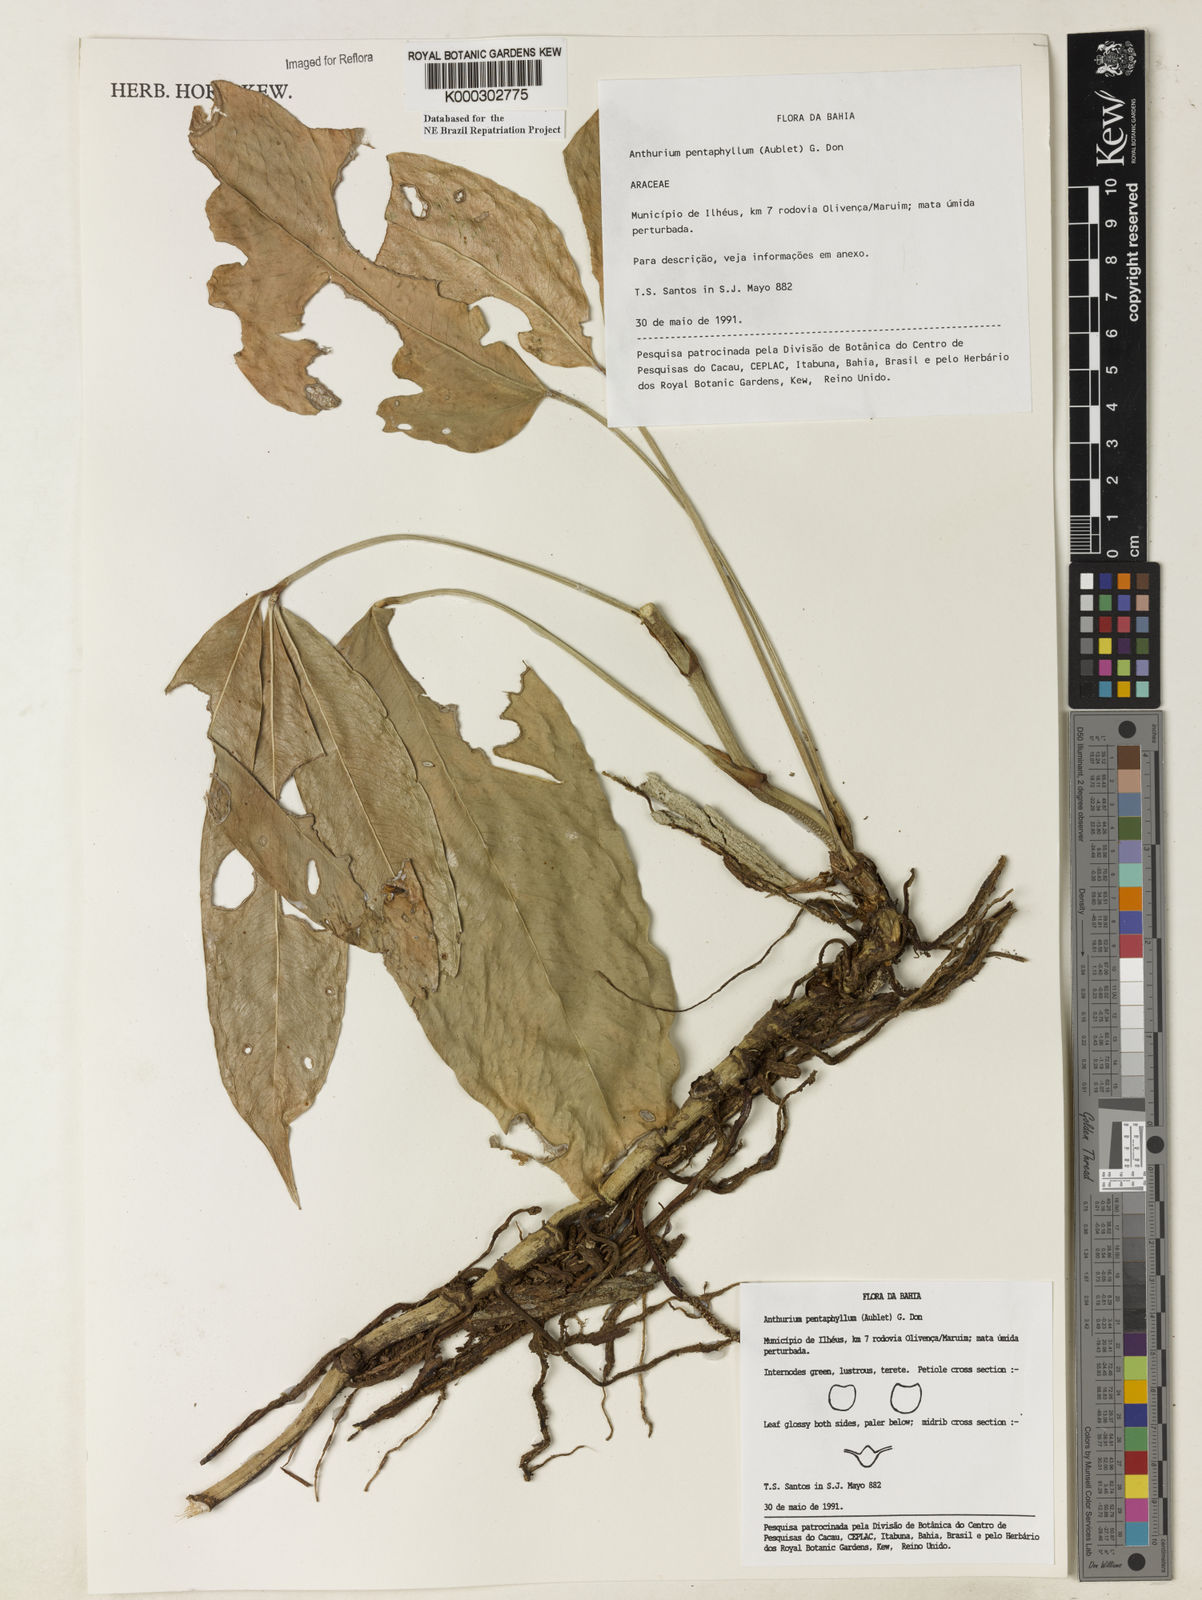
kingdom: Plantae
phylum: Tracheophyta
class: Liliopsida
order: Alismatales
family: Araceae
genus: Anthurium
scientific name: Anthurium pentaphyllum
